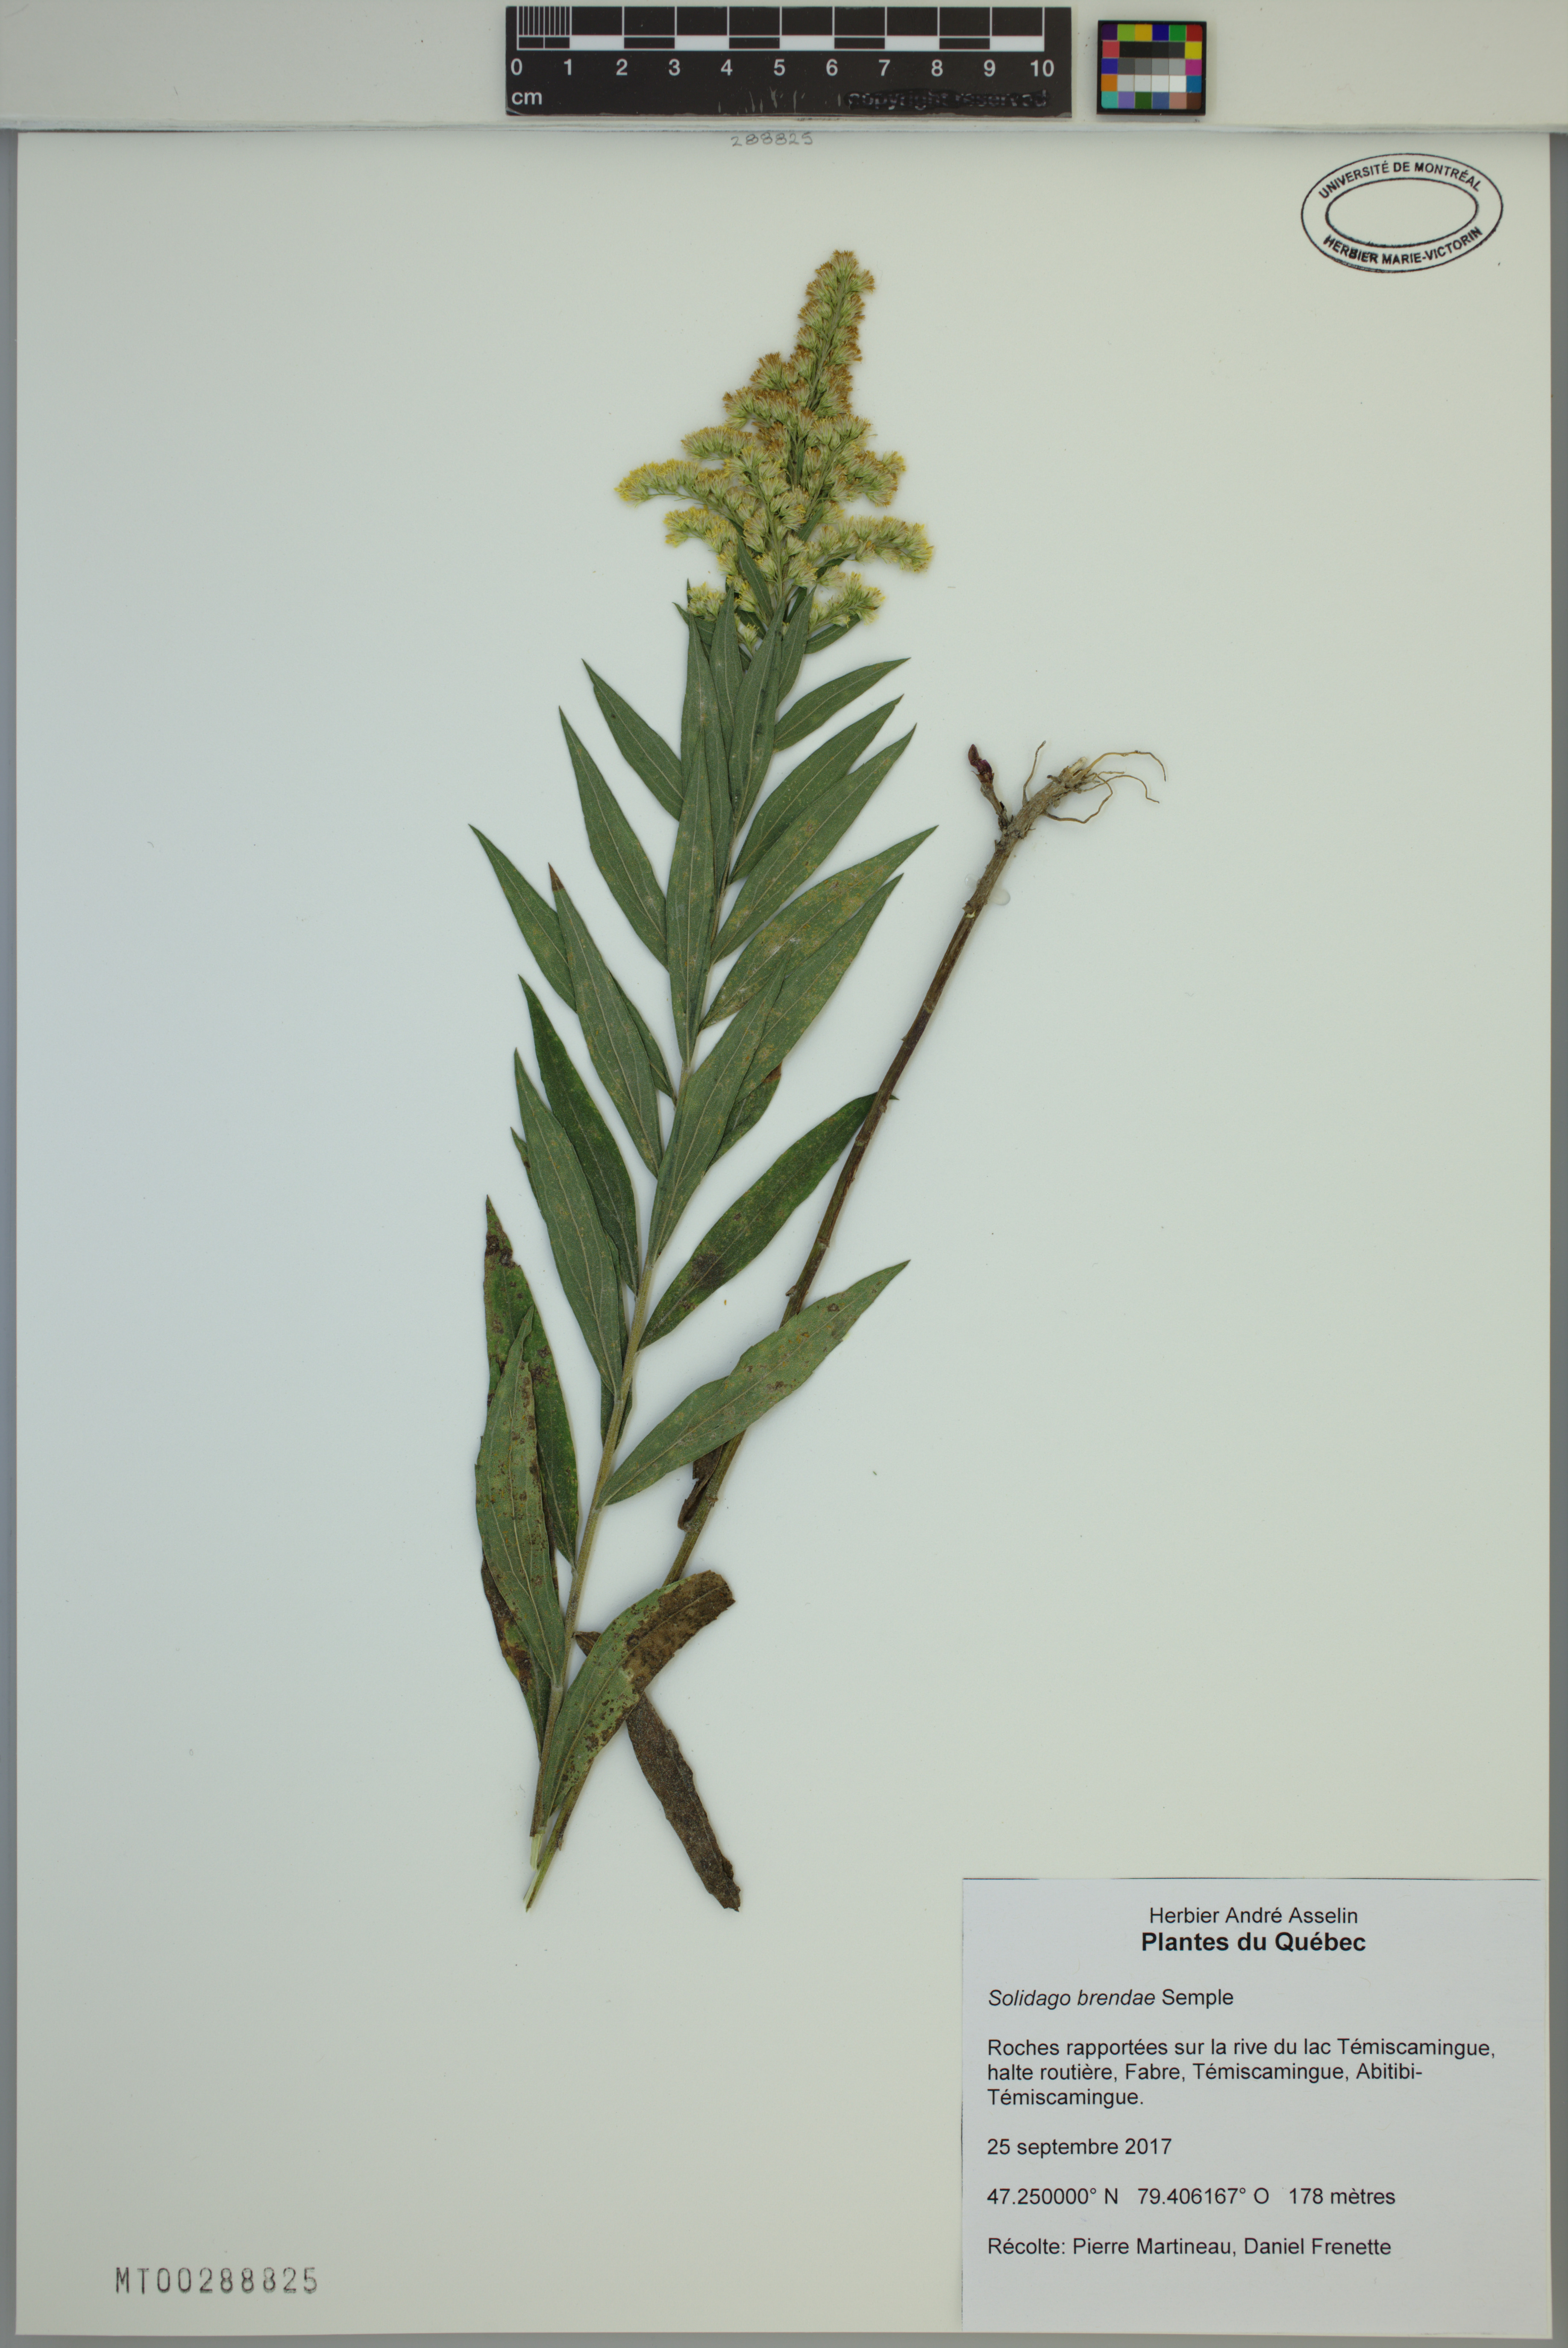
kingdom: Plantae
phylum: Tracheophyta
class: Magnoliopsida
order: Asterales
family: Asteraceae
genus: Solidago
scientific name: Solidago brendae
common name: Brenda's goldenrod
